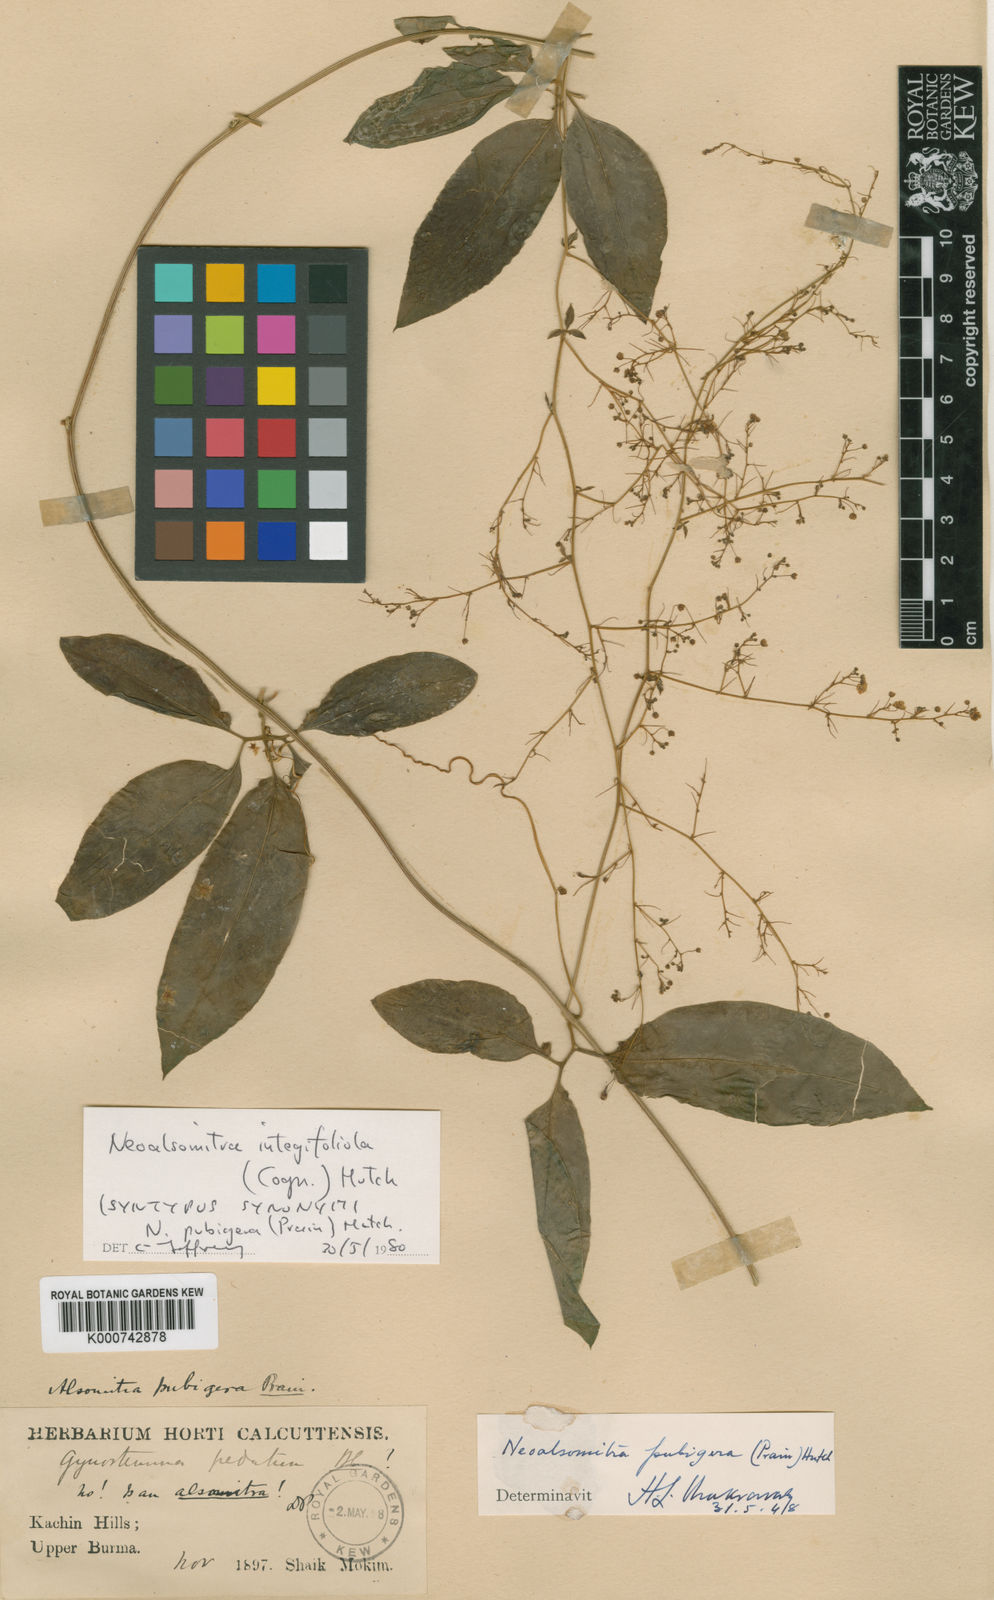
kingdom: Plantae
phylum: Tracheophyta
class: Magnoliopsida
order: Cucurbitales
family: Cucurbitaceae
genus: Neoalsomitra
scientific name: Neoalsomitra clavigera
